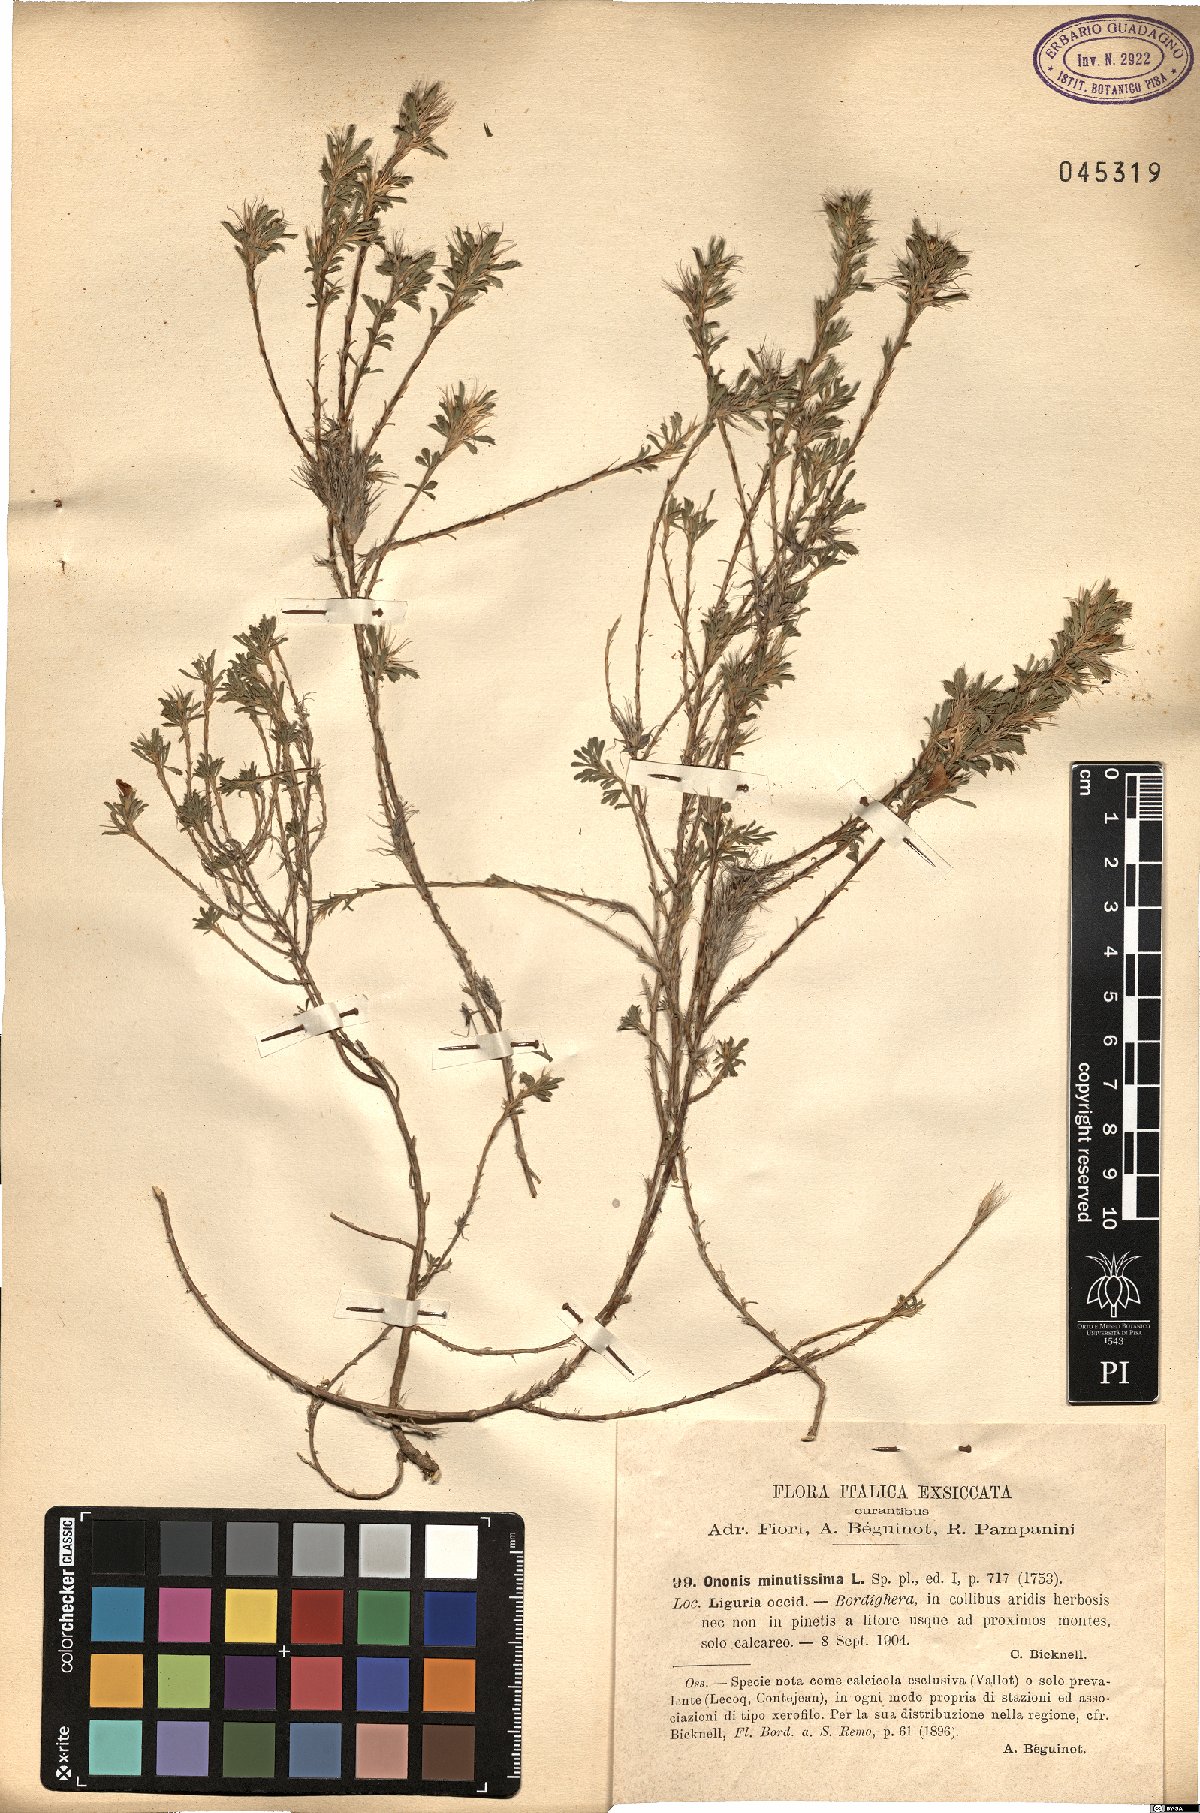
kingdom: Plantae
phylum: Tracheophyta
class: Magnoliopsida
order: Fabales
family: Fabaceae
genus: Ononis
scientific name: Ononis minutissima
